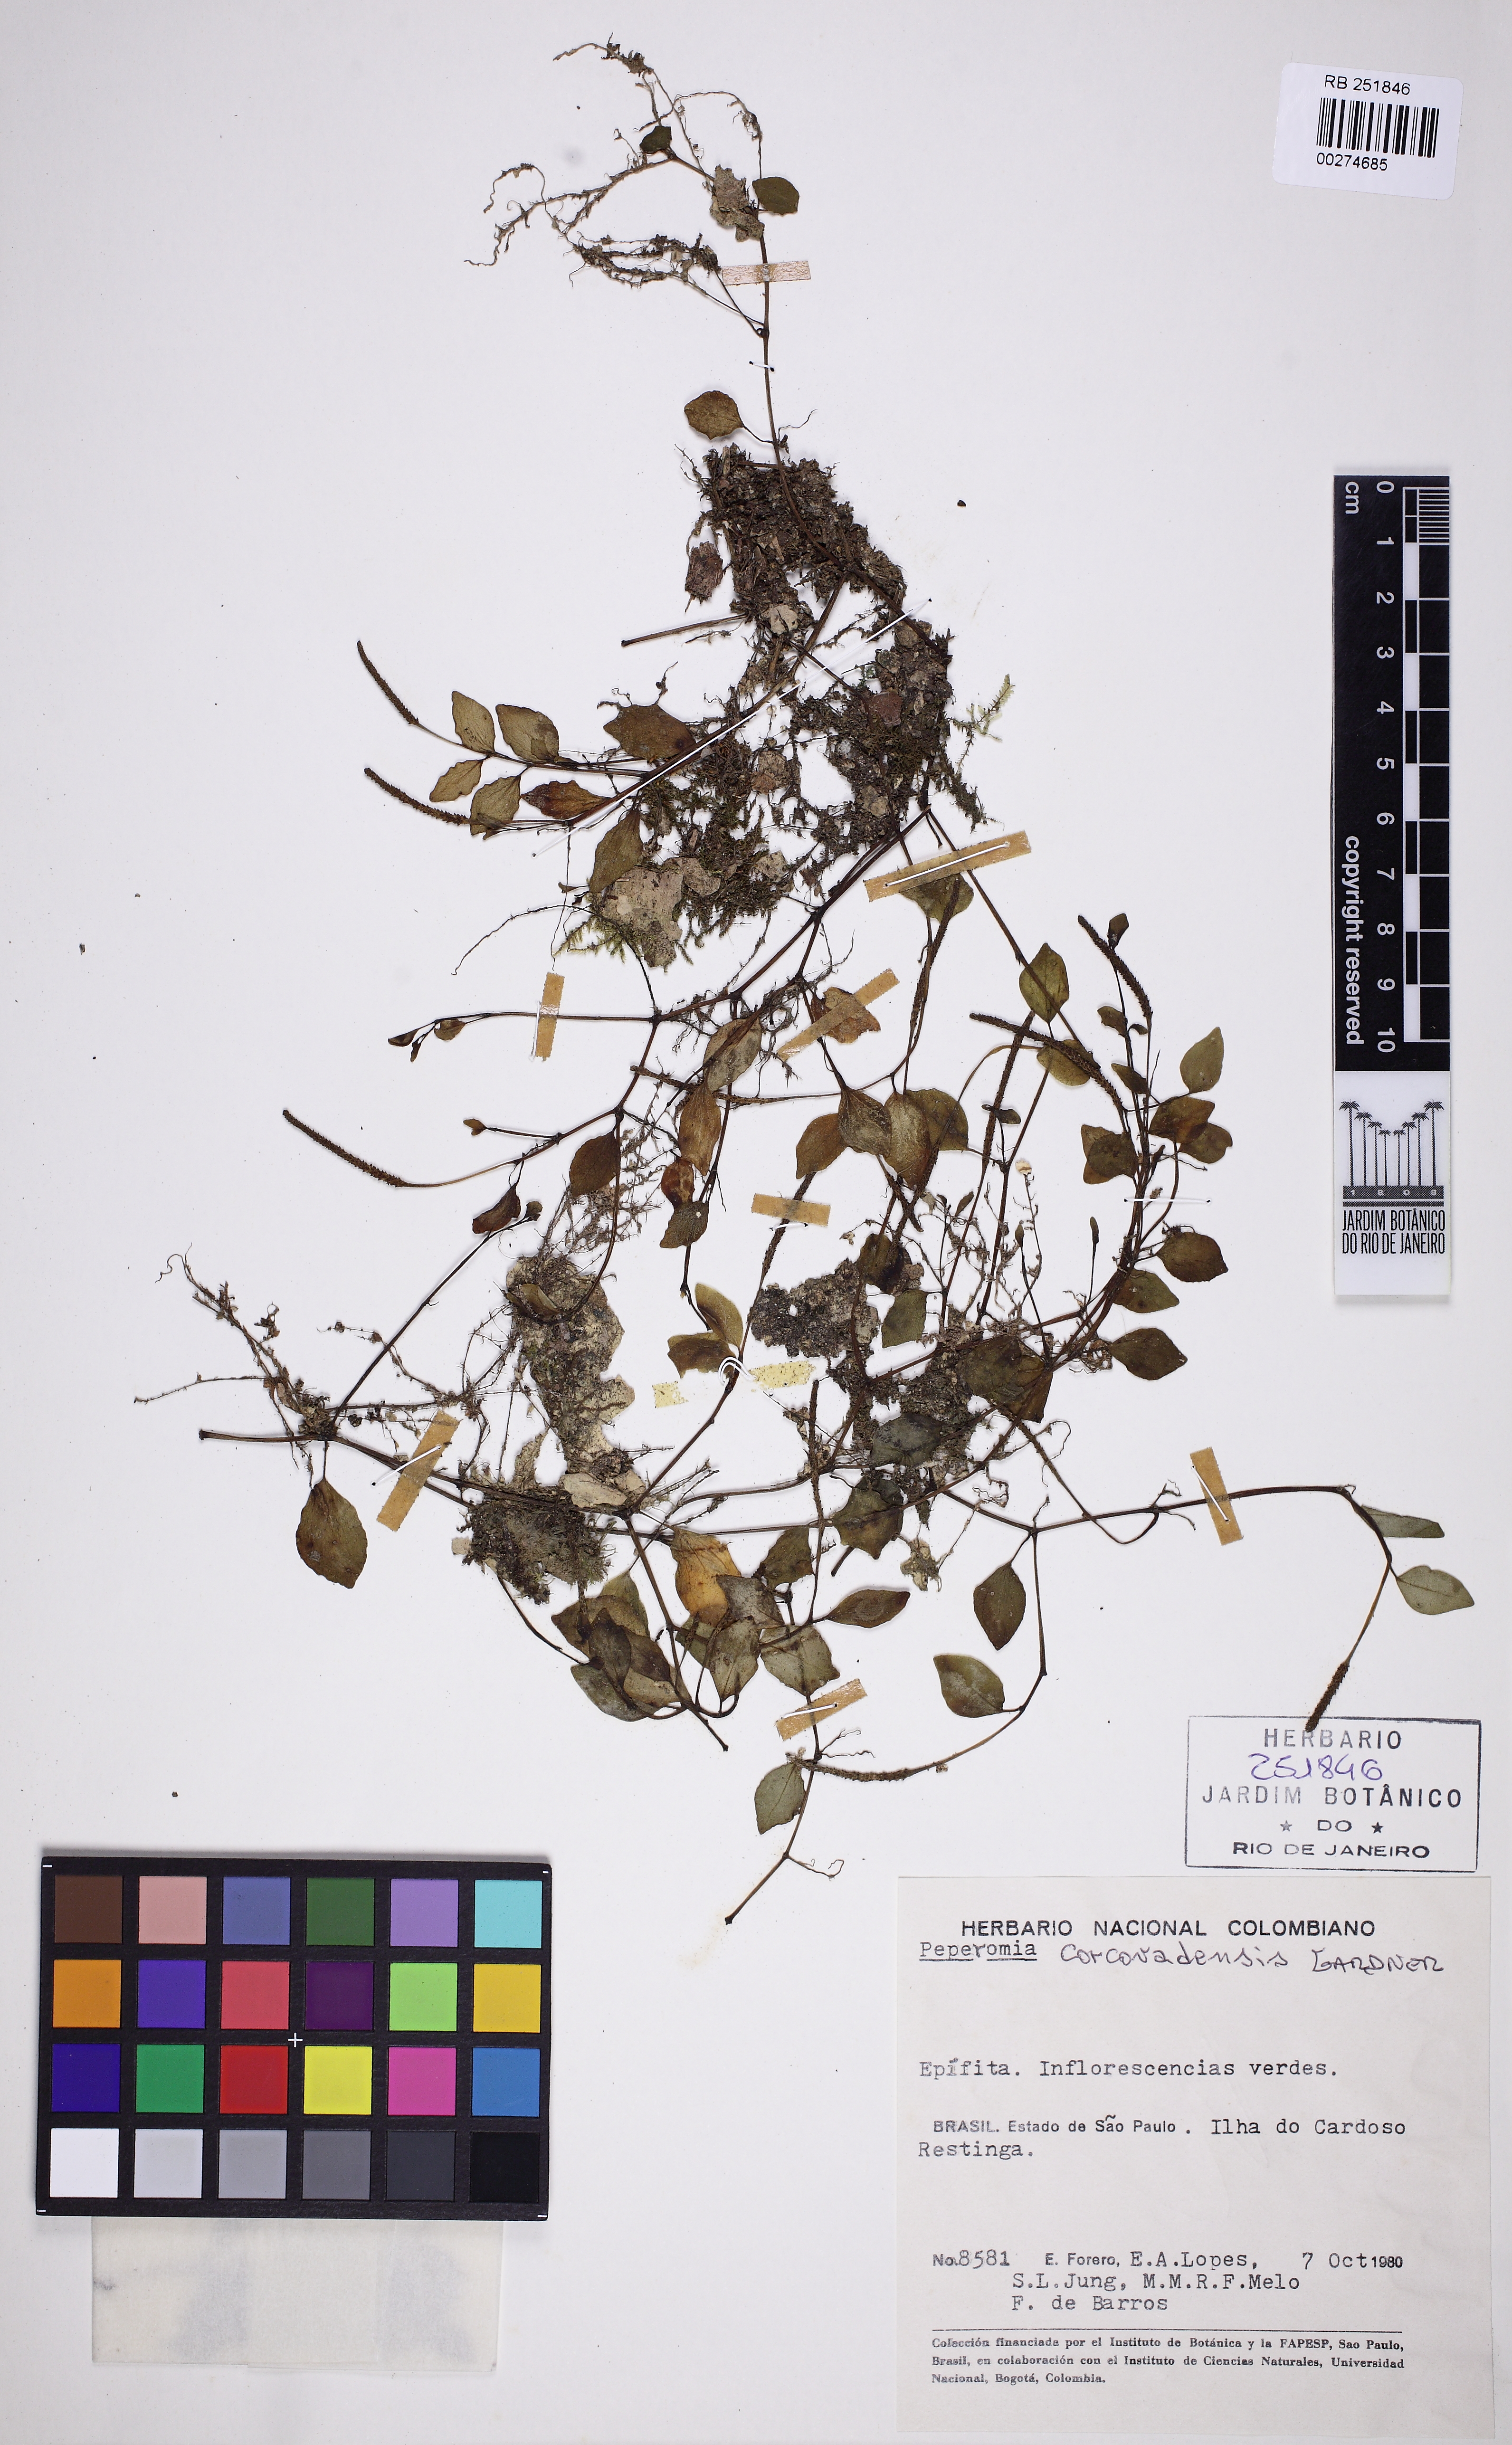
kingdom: Plantae
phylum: Tracheophyta
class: Magnoliopsida
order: Piperales
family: Piperaceae
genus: Peperomia
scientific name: Peperomia corcovadensis
